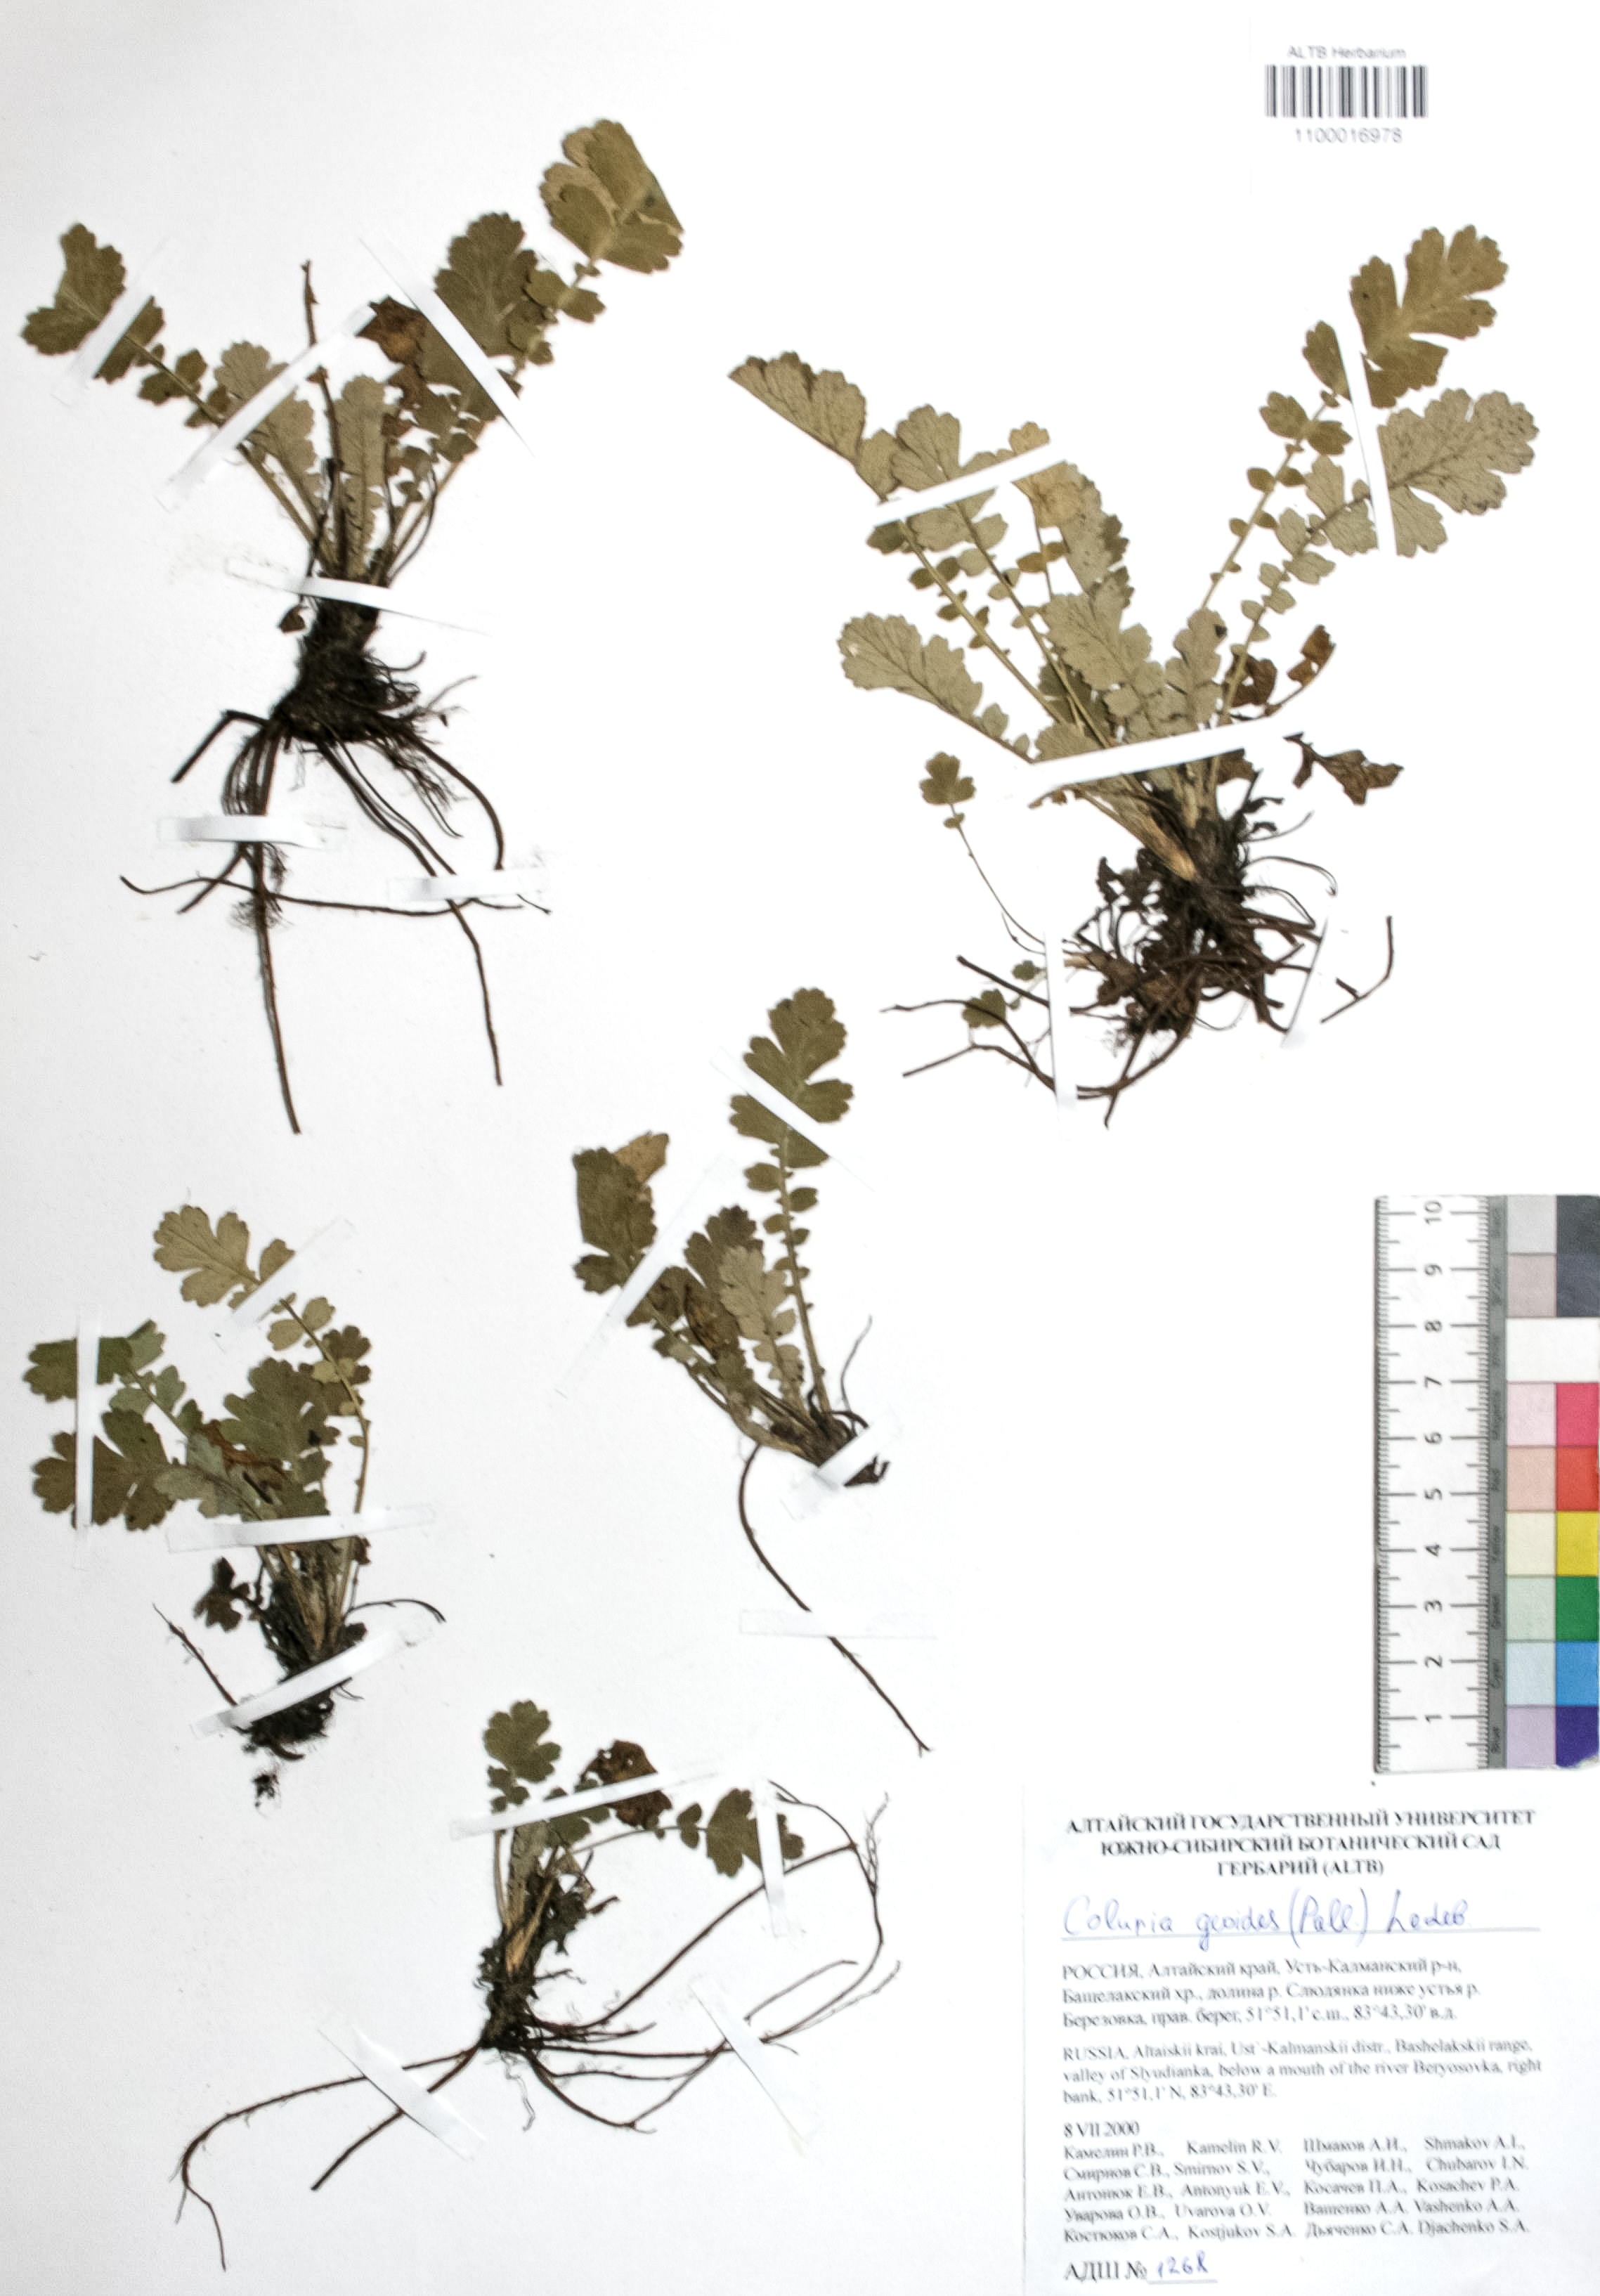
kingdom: Plantae
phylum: Tracheophyta
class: Magnoliopsida
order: Rosales
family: Rosaceae
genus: Geum
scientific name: Geum geoides
